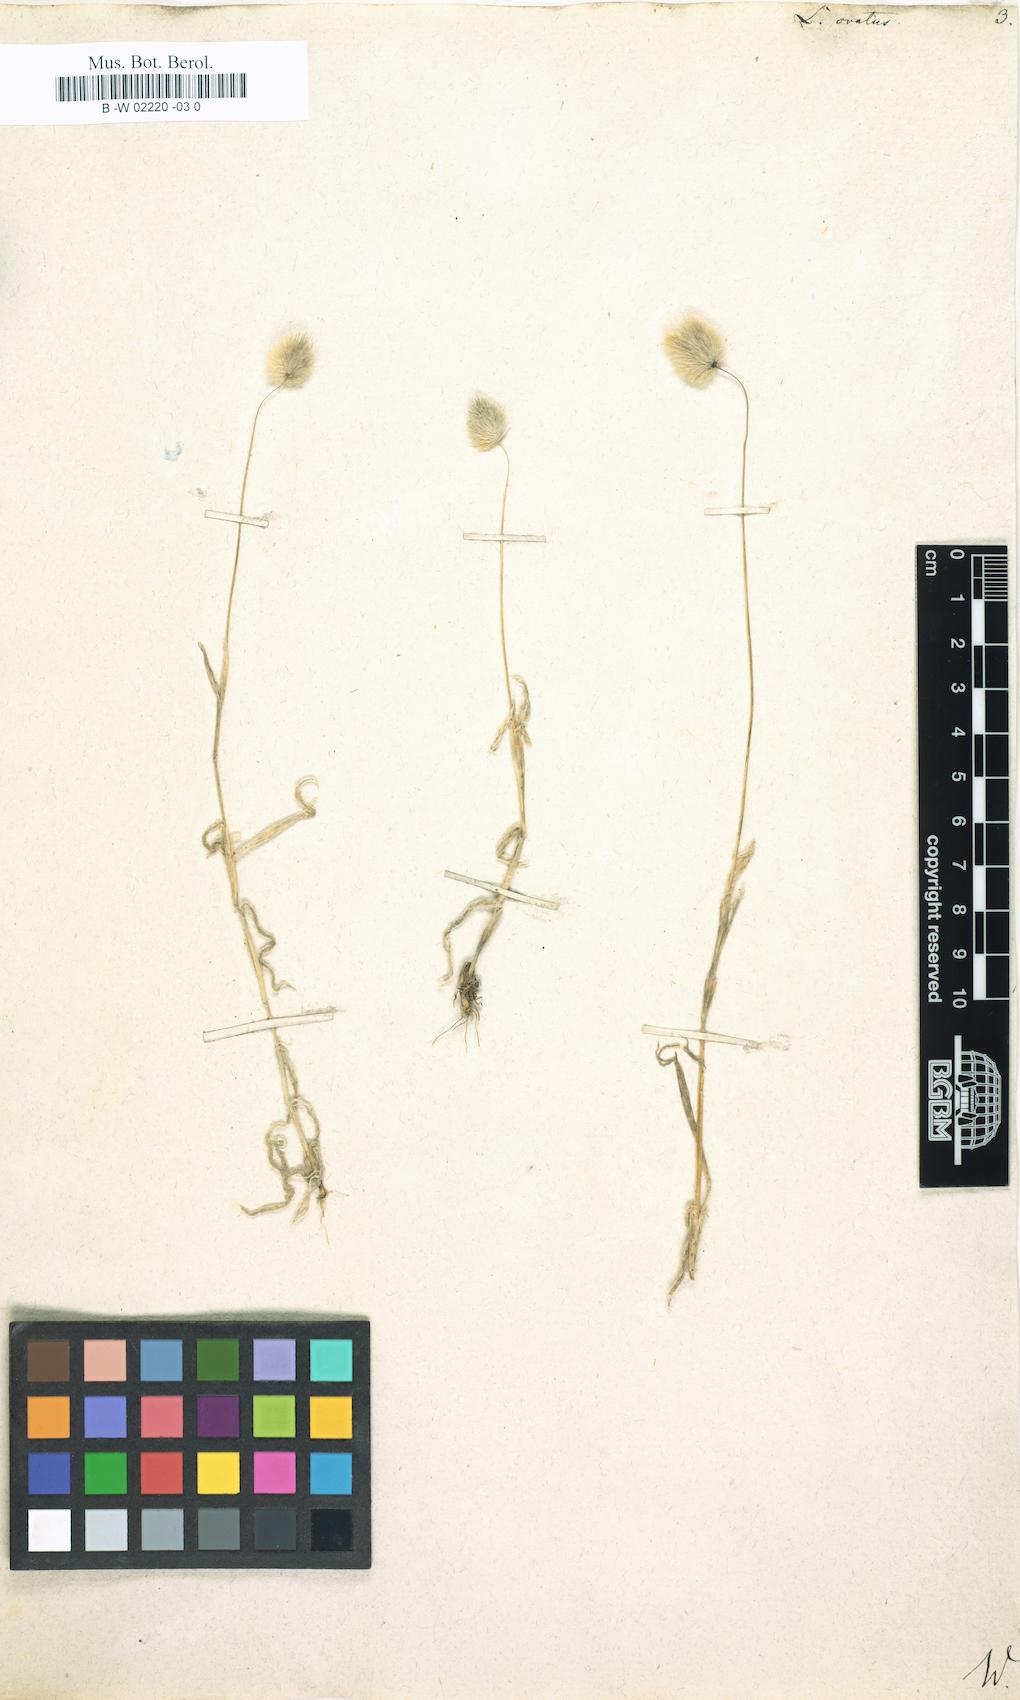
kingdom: Plantae
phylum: Tracheophyta
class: Liliopsida
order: Poales
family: Poaceae
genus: Lagurus
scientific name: Lagurus ovatus
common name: Hare's-tail
